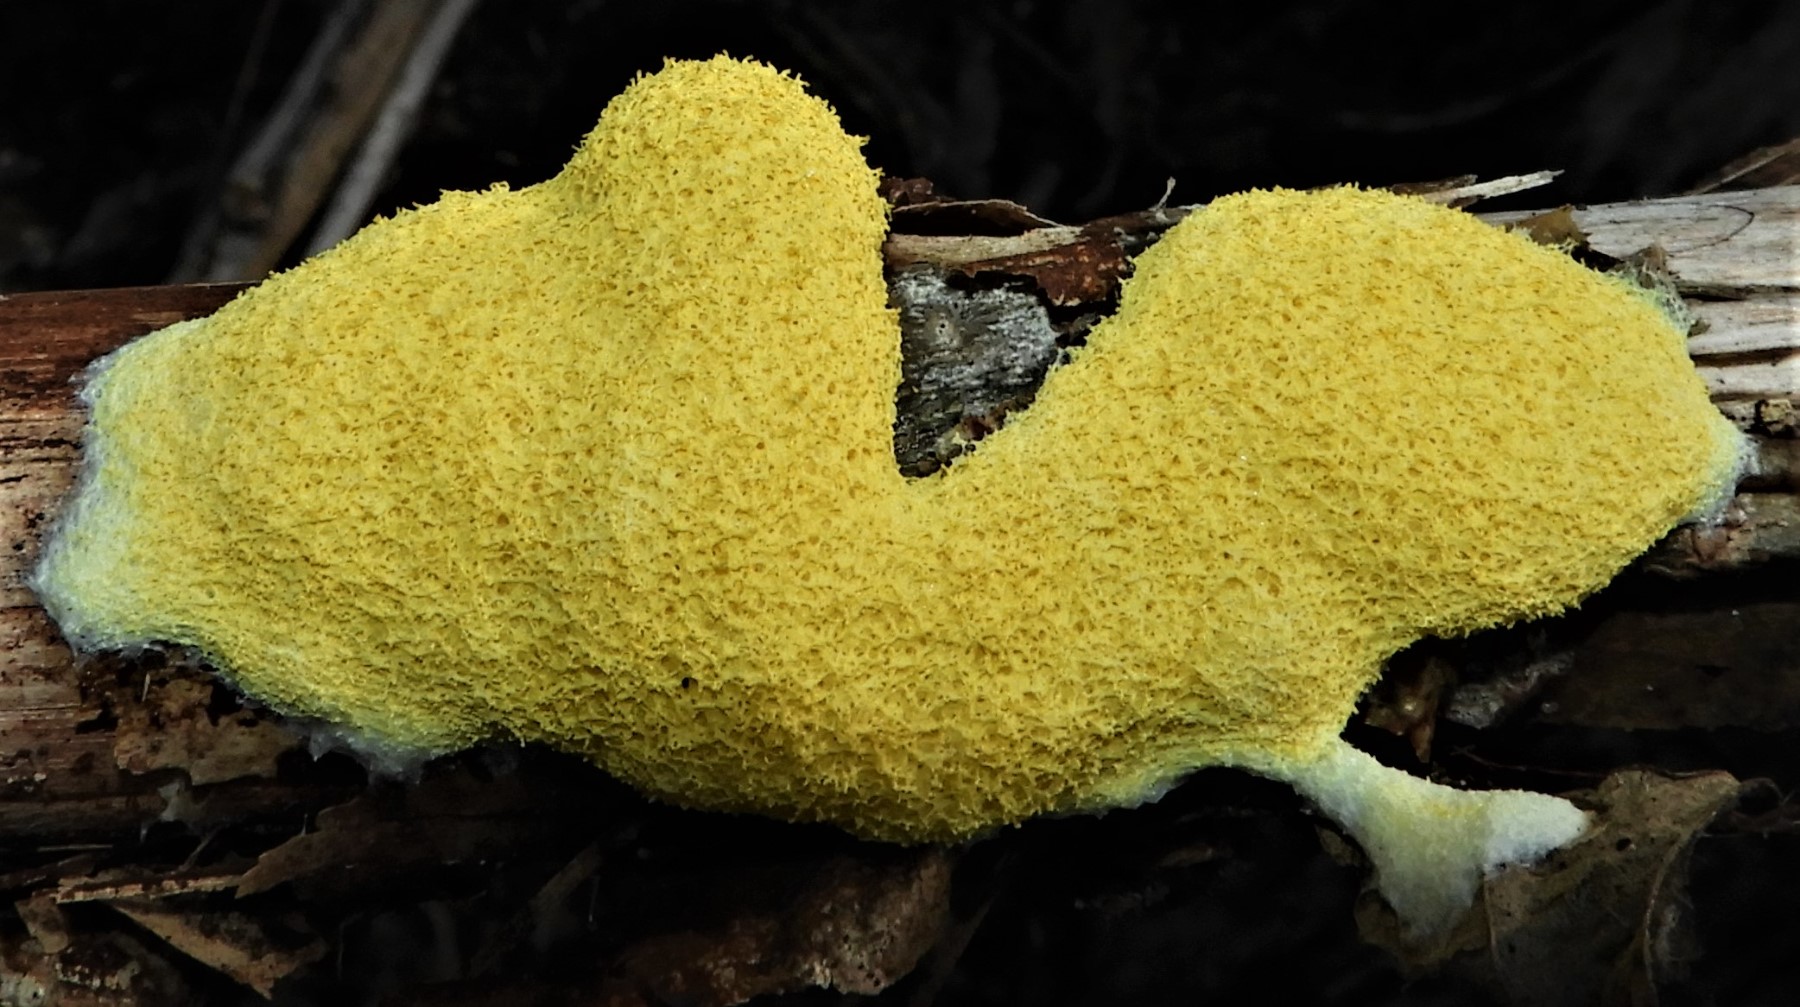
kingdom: Protozoa
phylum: Mycetozoa
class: Myxomycetes
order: Physarales
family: Physaraceae
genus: Fuligo
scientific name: Fuligo septica
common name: gul troldsmør
